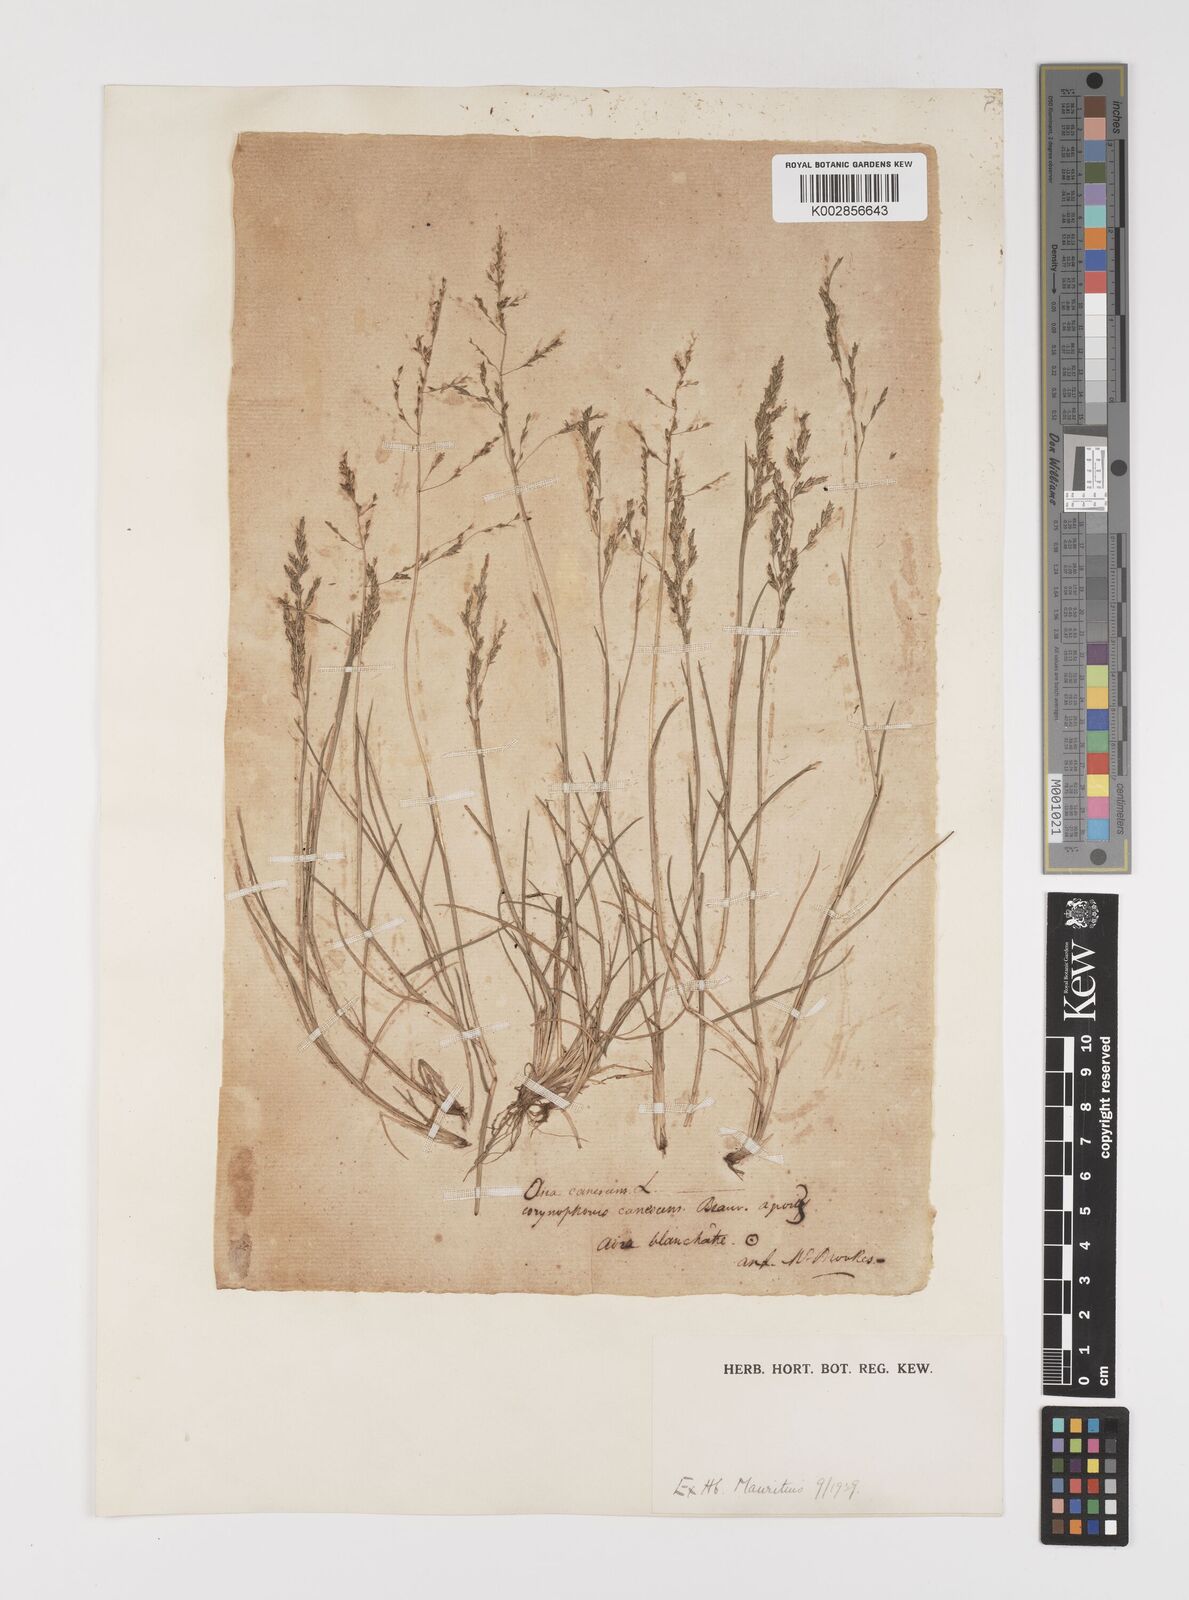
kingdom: Plantae
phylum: Tracheophyta
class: Liliopsida
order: Poales
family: Poaceae
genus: Puccinellia
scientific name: Puccinellia distans
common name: Weeping alkaligrass
